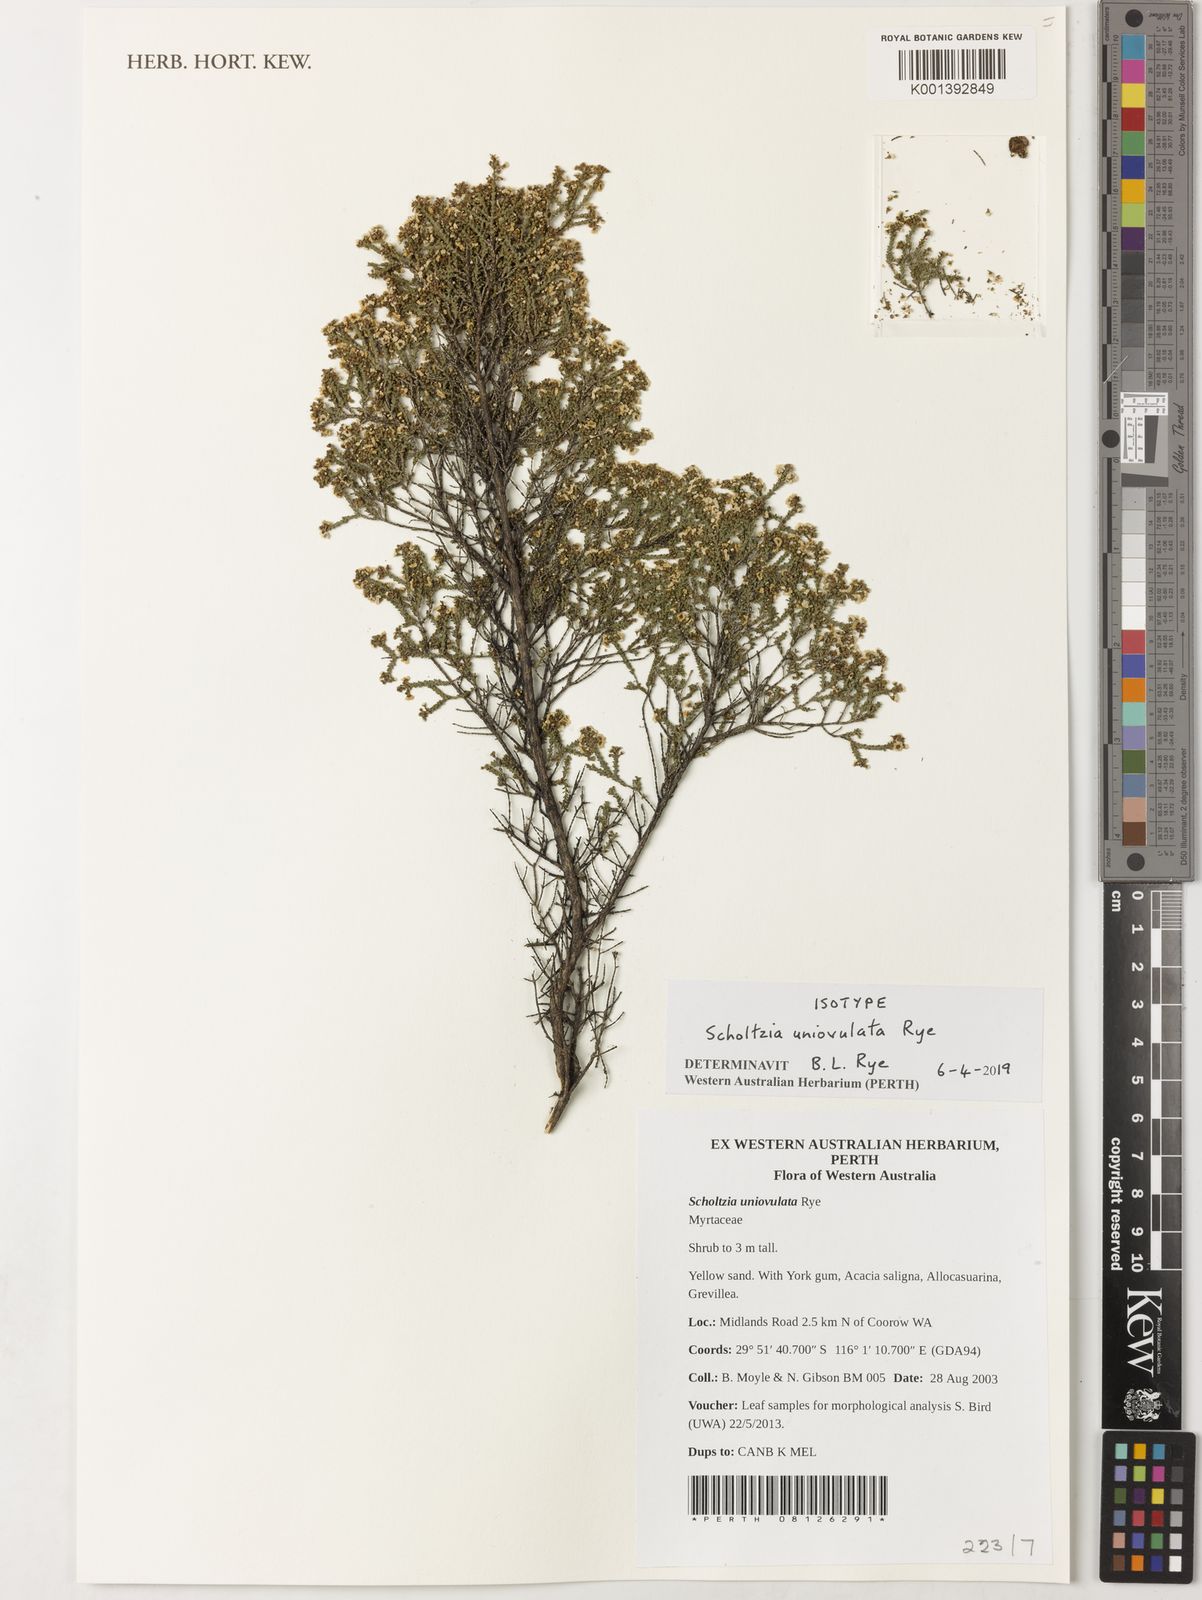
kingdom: Plantae
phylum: Tracheophyta
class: Magnoliopsida
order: Myrtales
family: Myrtaceae
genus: Scholtzia
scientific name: Scholtzia
